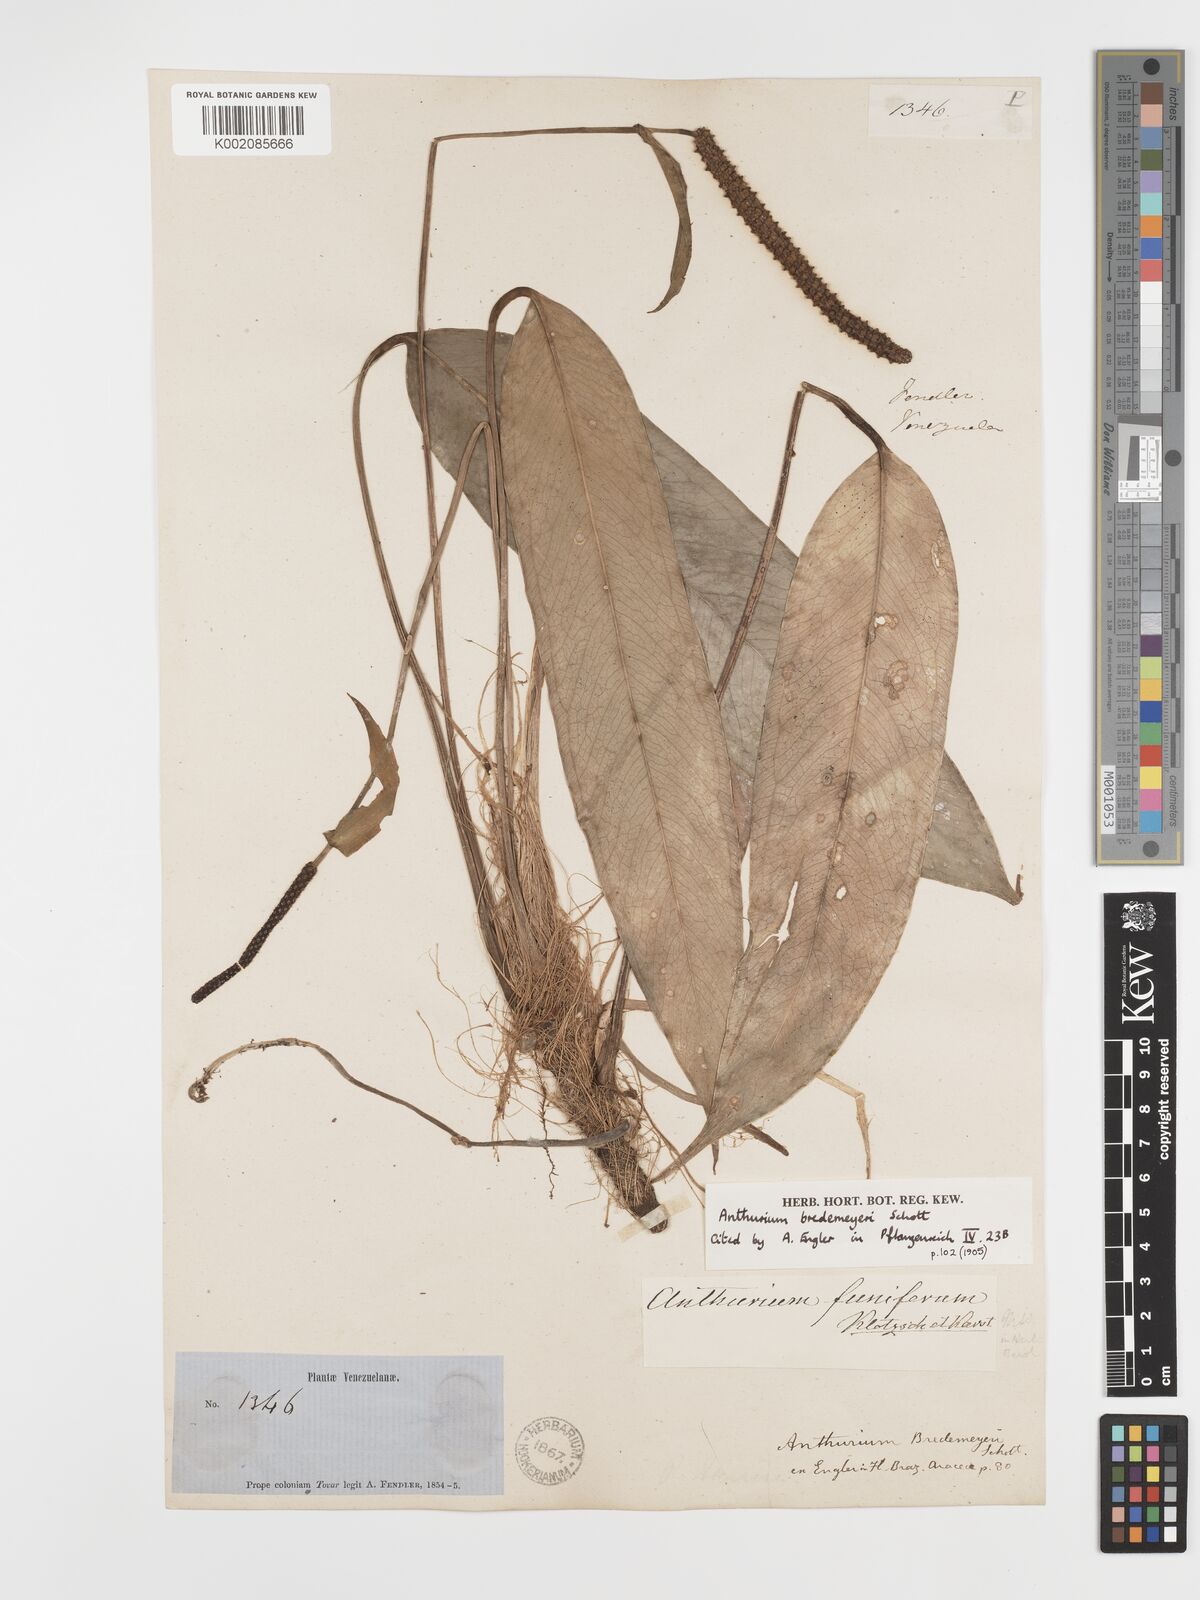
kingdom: Plantae
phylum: Tracheophyta
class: Liliopsida
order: Alismatales
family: Araceae
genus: Anthurium
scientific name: Anthurium bredemeyeri
